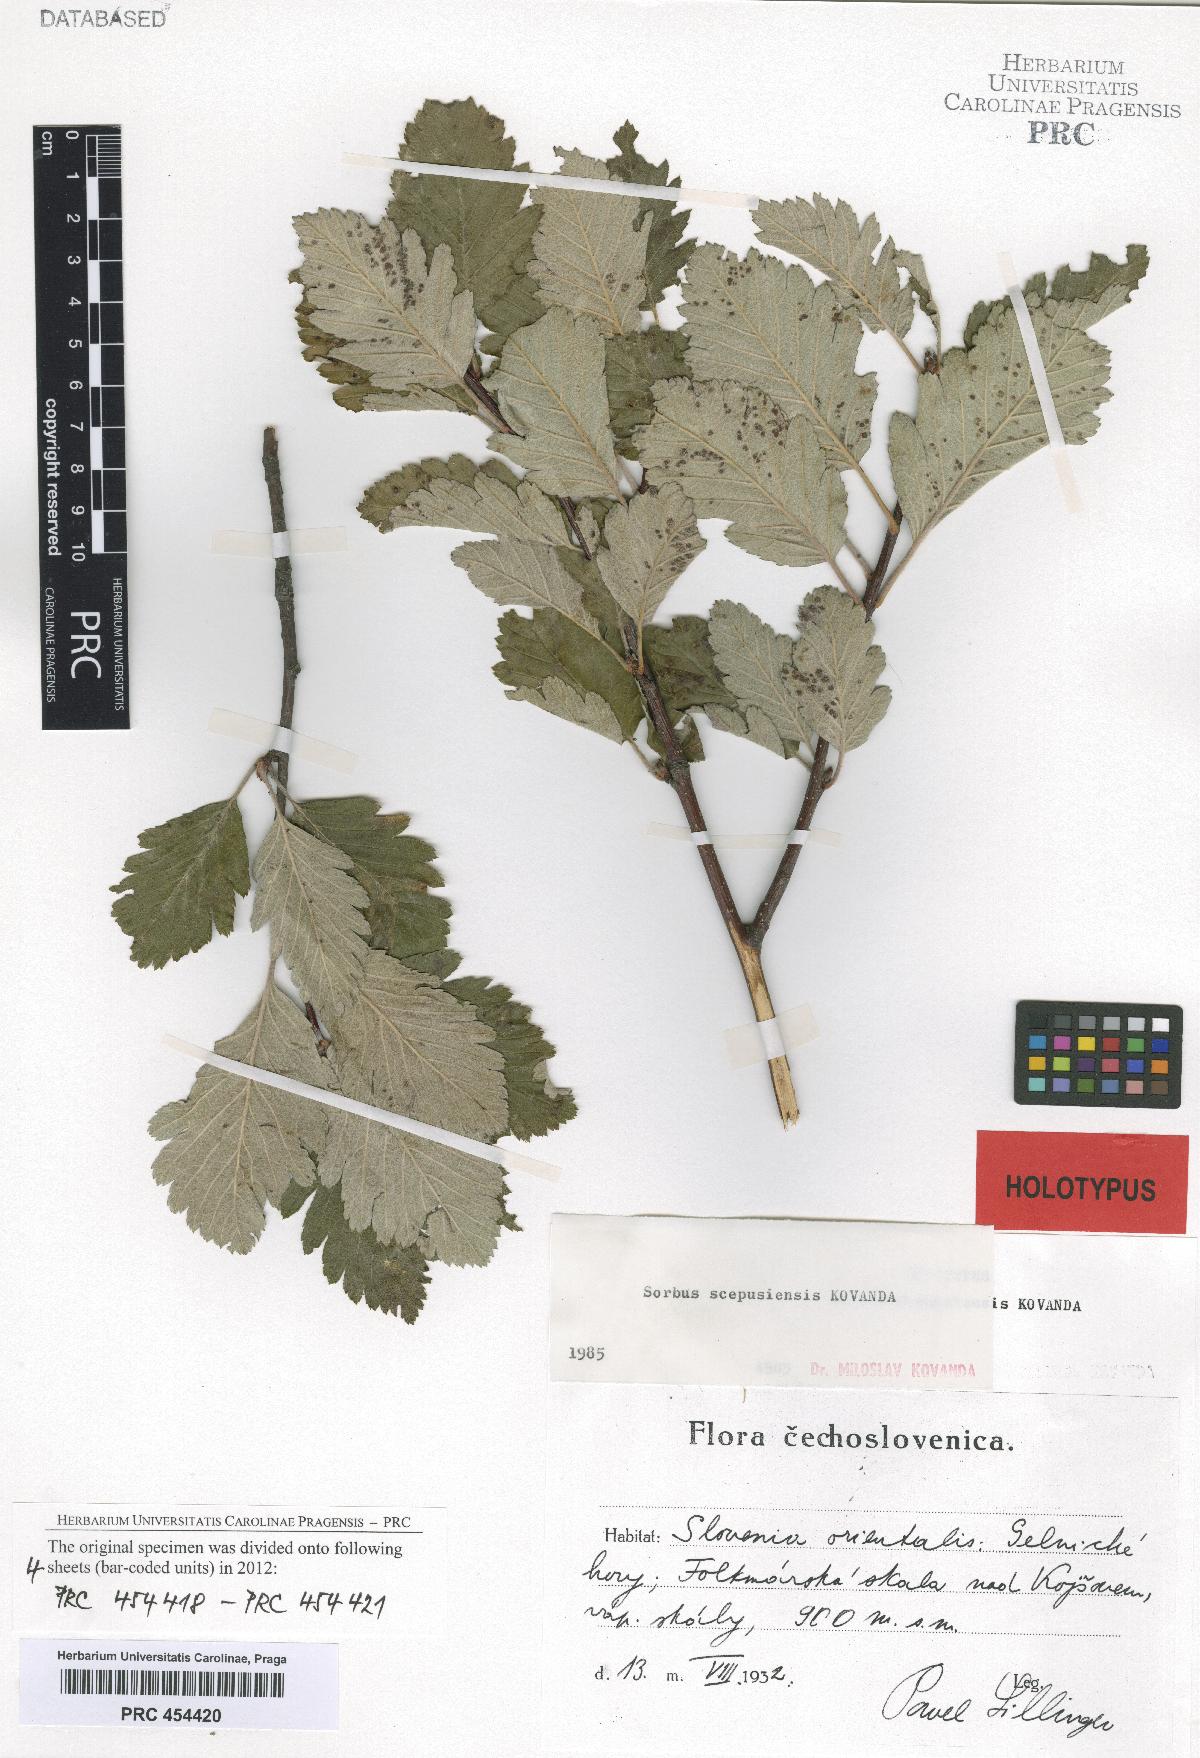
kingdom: Plantae
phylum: Tracheophyta
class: Magnoliopsida
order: Rosales
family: Rosaceae
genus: Hedlundia
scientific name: Hedlundia scepusiensis
